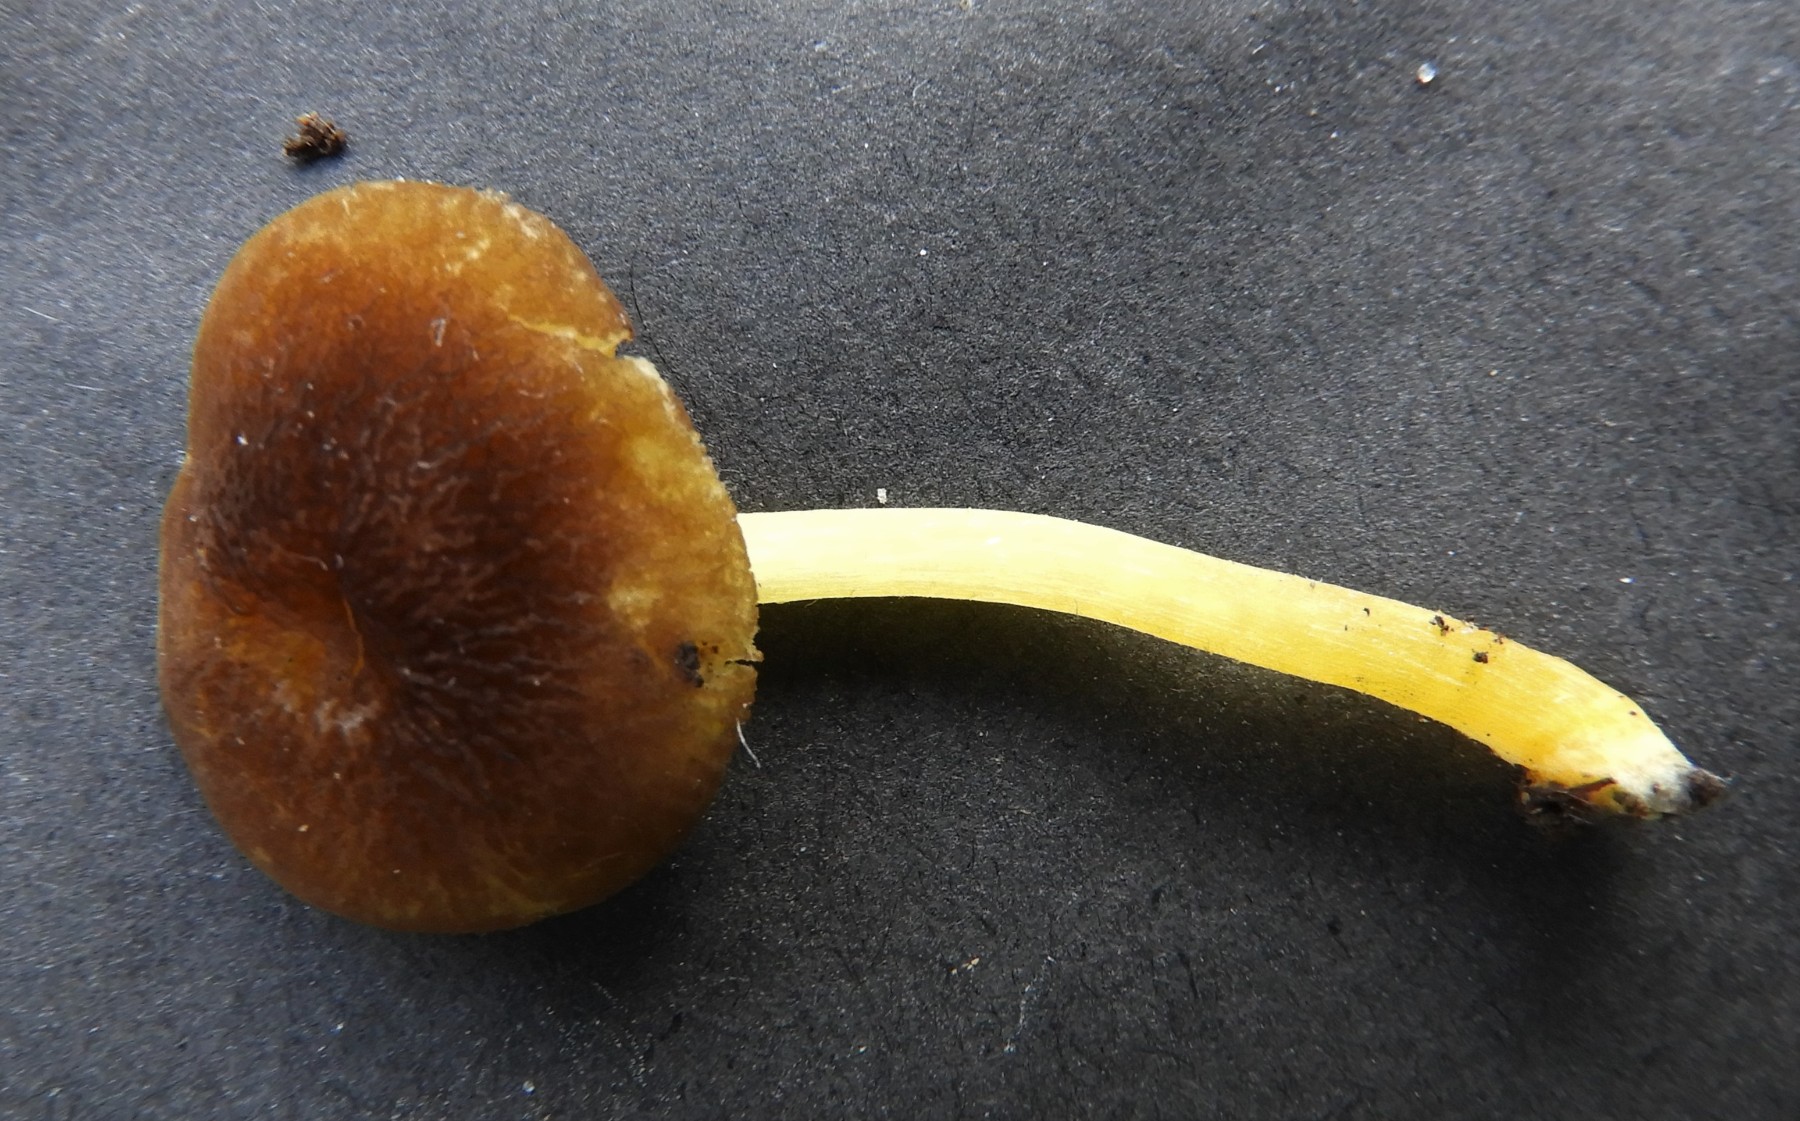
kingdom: Fungi
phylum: Basidiomycota
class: Agaricomycetes
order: Agaricales
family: Pluteaceae
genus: Pluteus
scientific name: Pluteus
